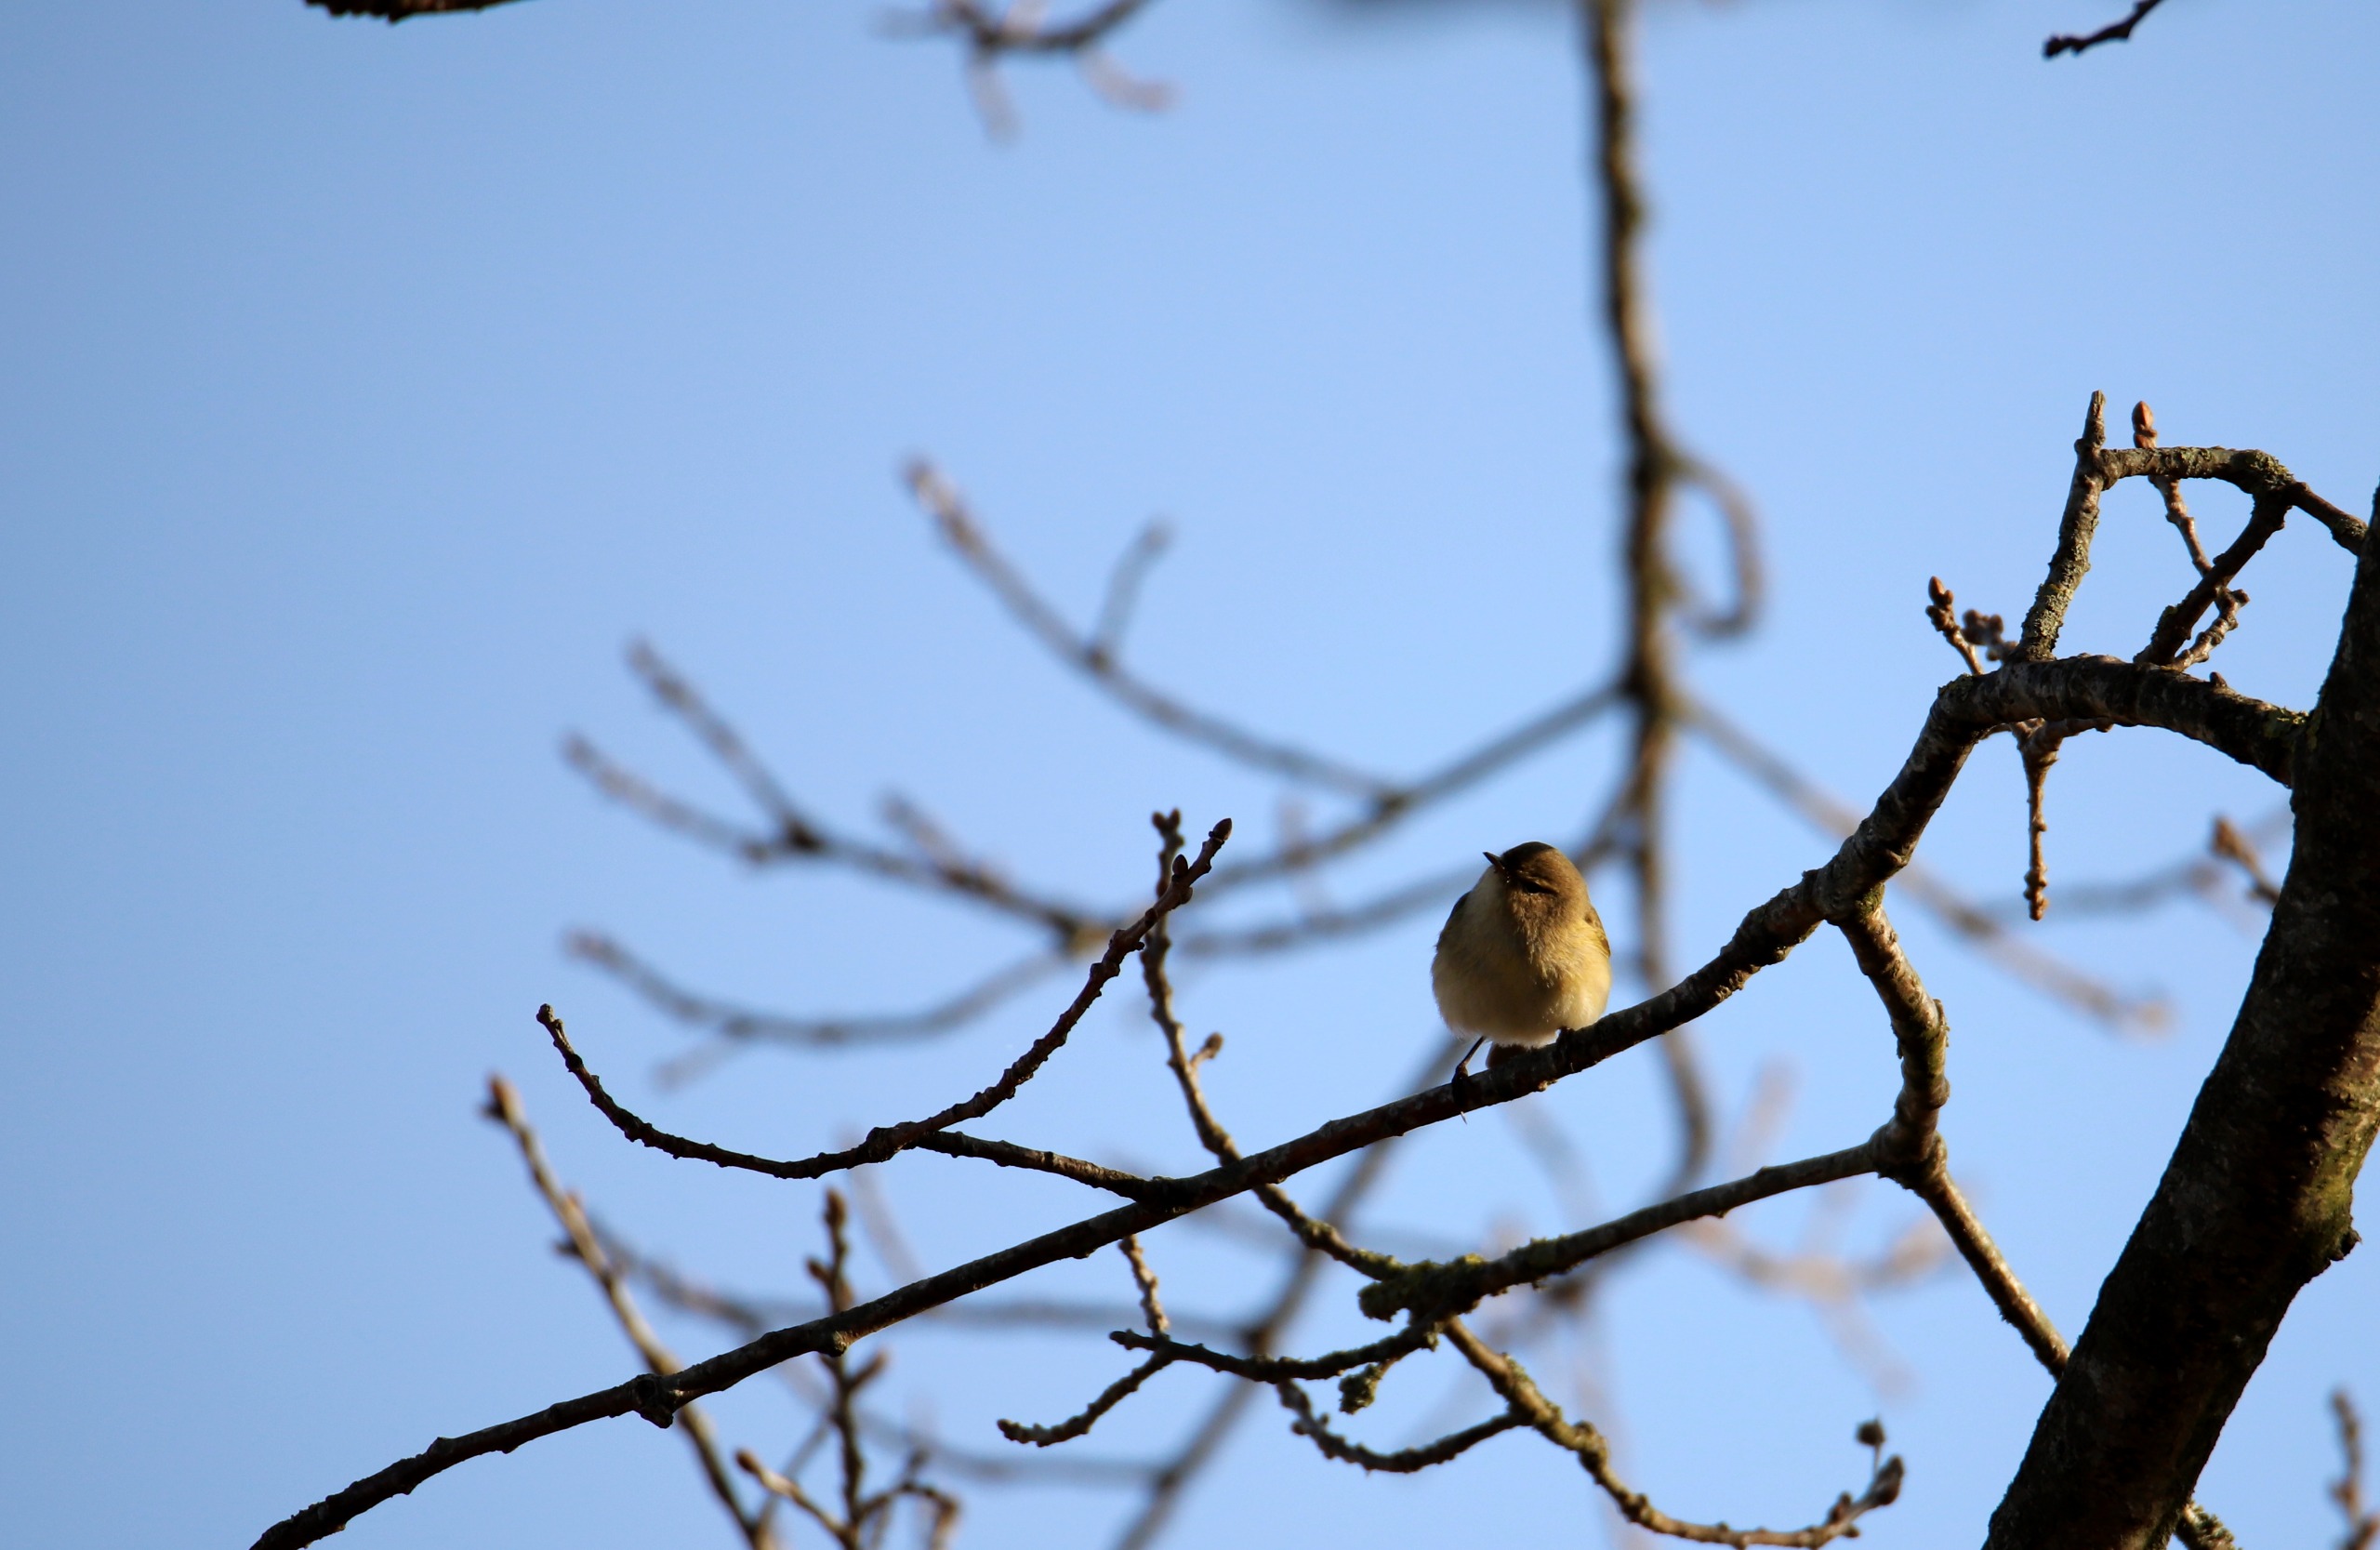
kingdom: Animalia
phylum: Chordata
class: Aves
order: Passeriformes
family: Phylloscopidae
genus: Phylloscopus
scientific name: Phylloscopus collybita
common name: Gransanger
